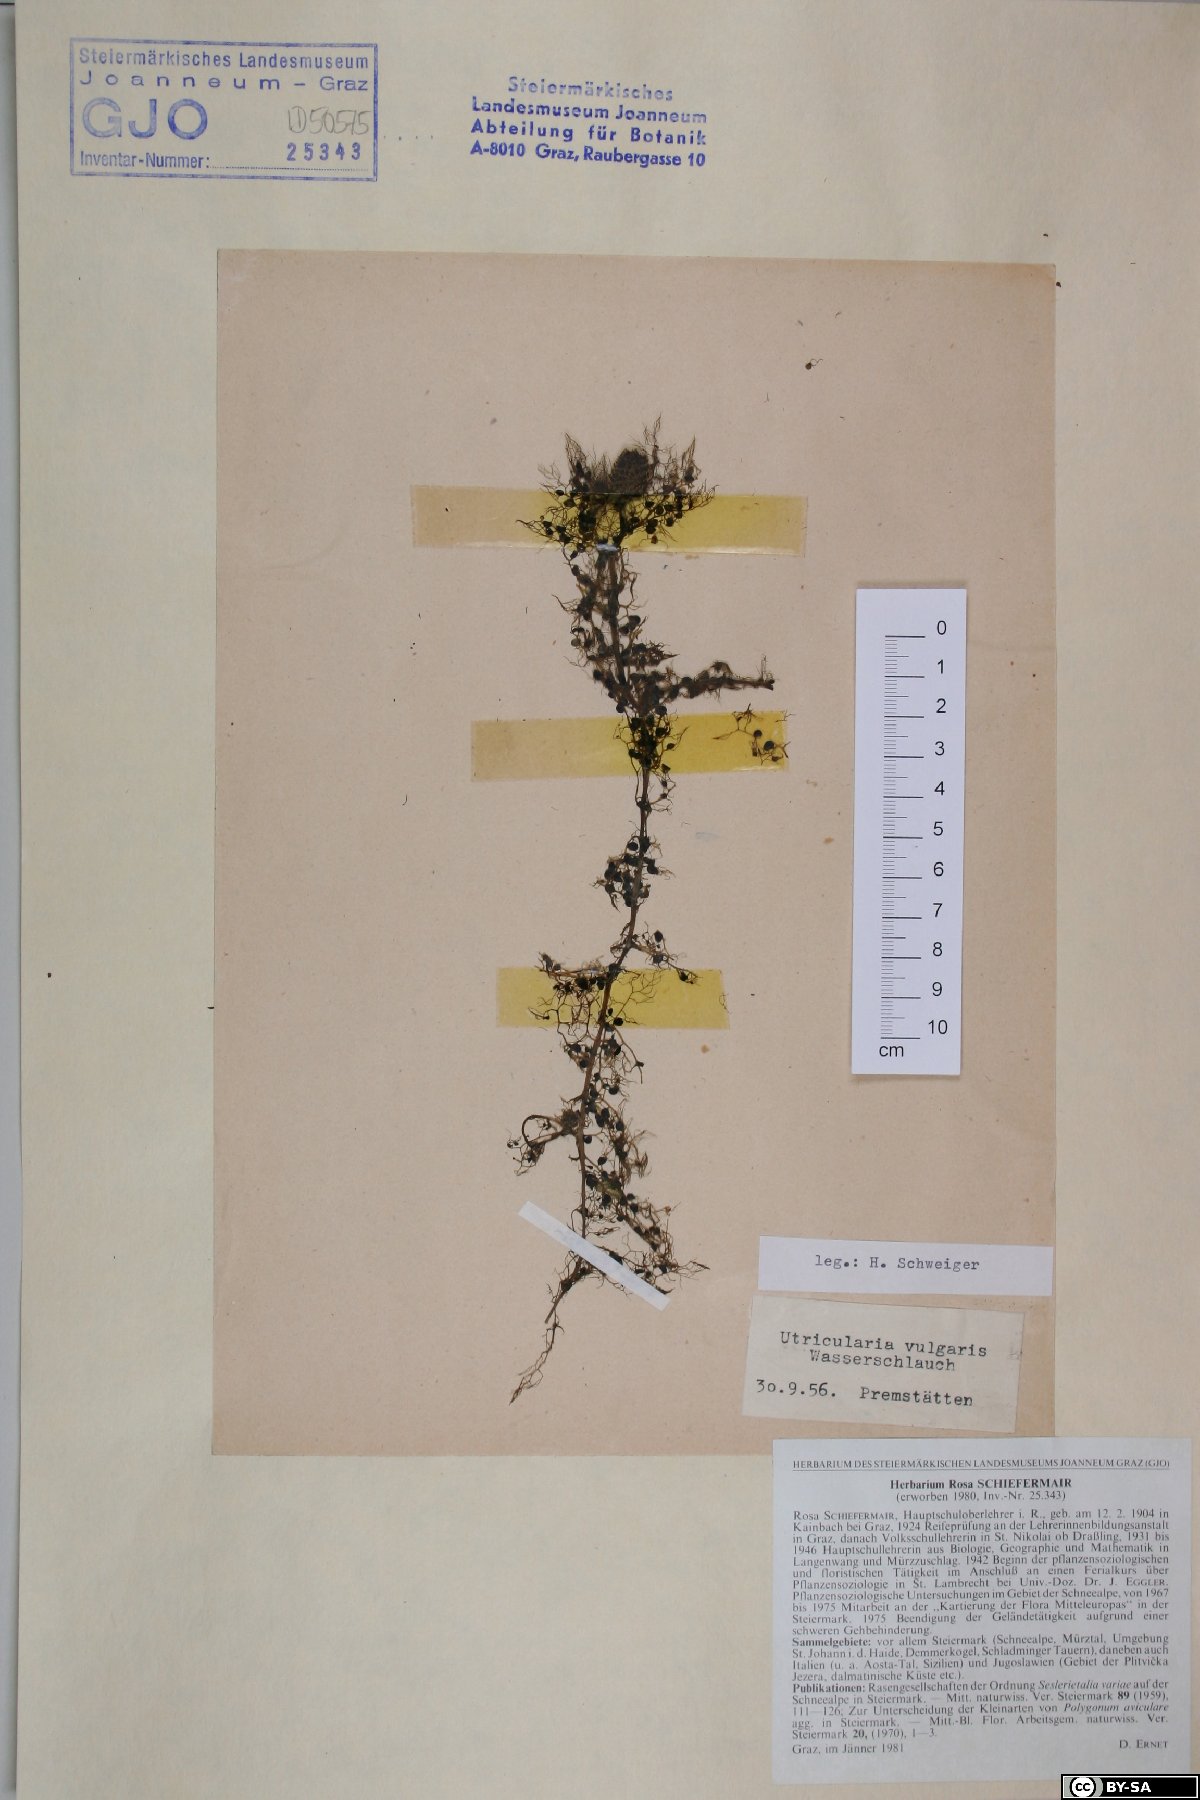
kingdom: Plantae
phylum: Tracheophyta
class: Magnoliopsida
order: Lamiales
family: Lentibulariaceae
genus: Utricularia
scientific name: Utricularia vulgaris
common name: Greater bladderwort
